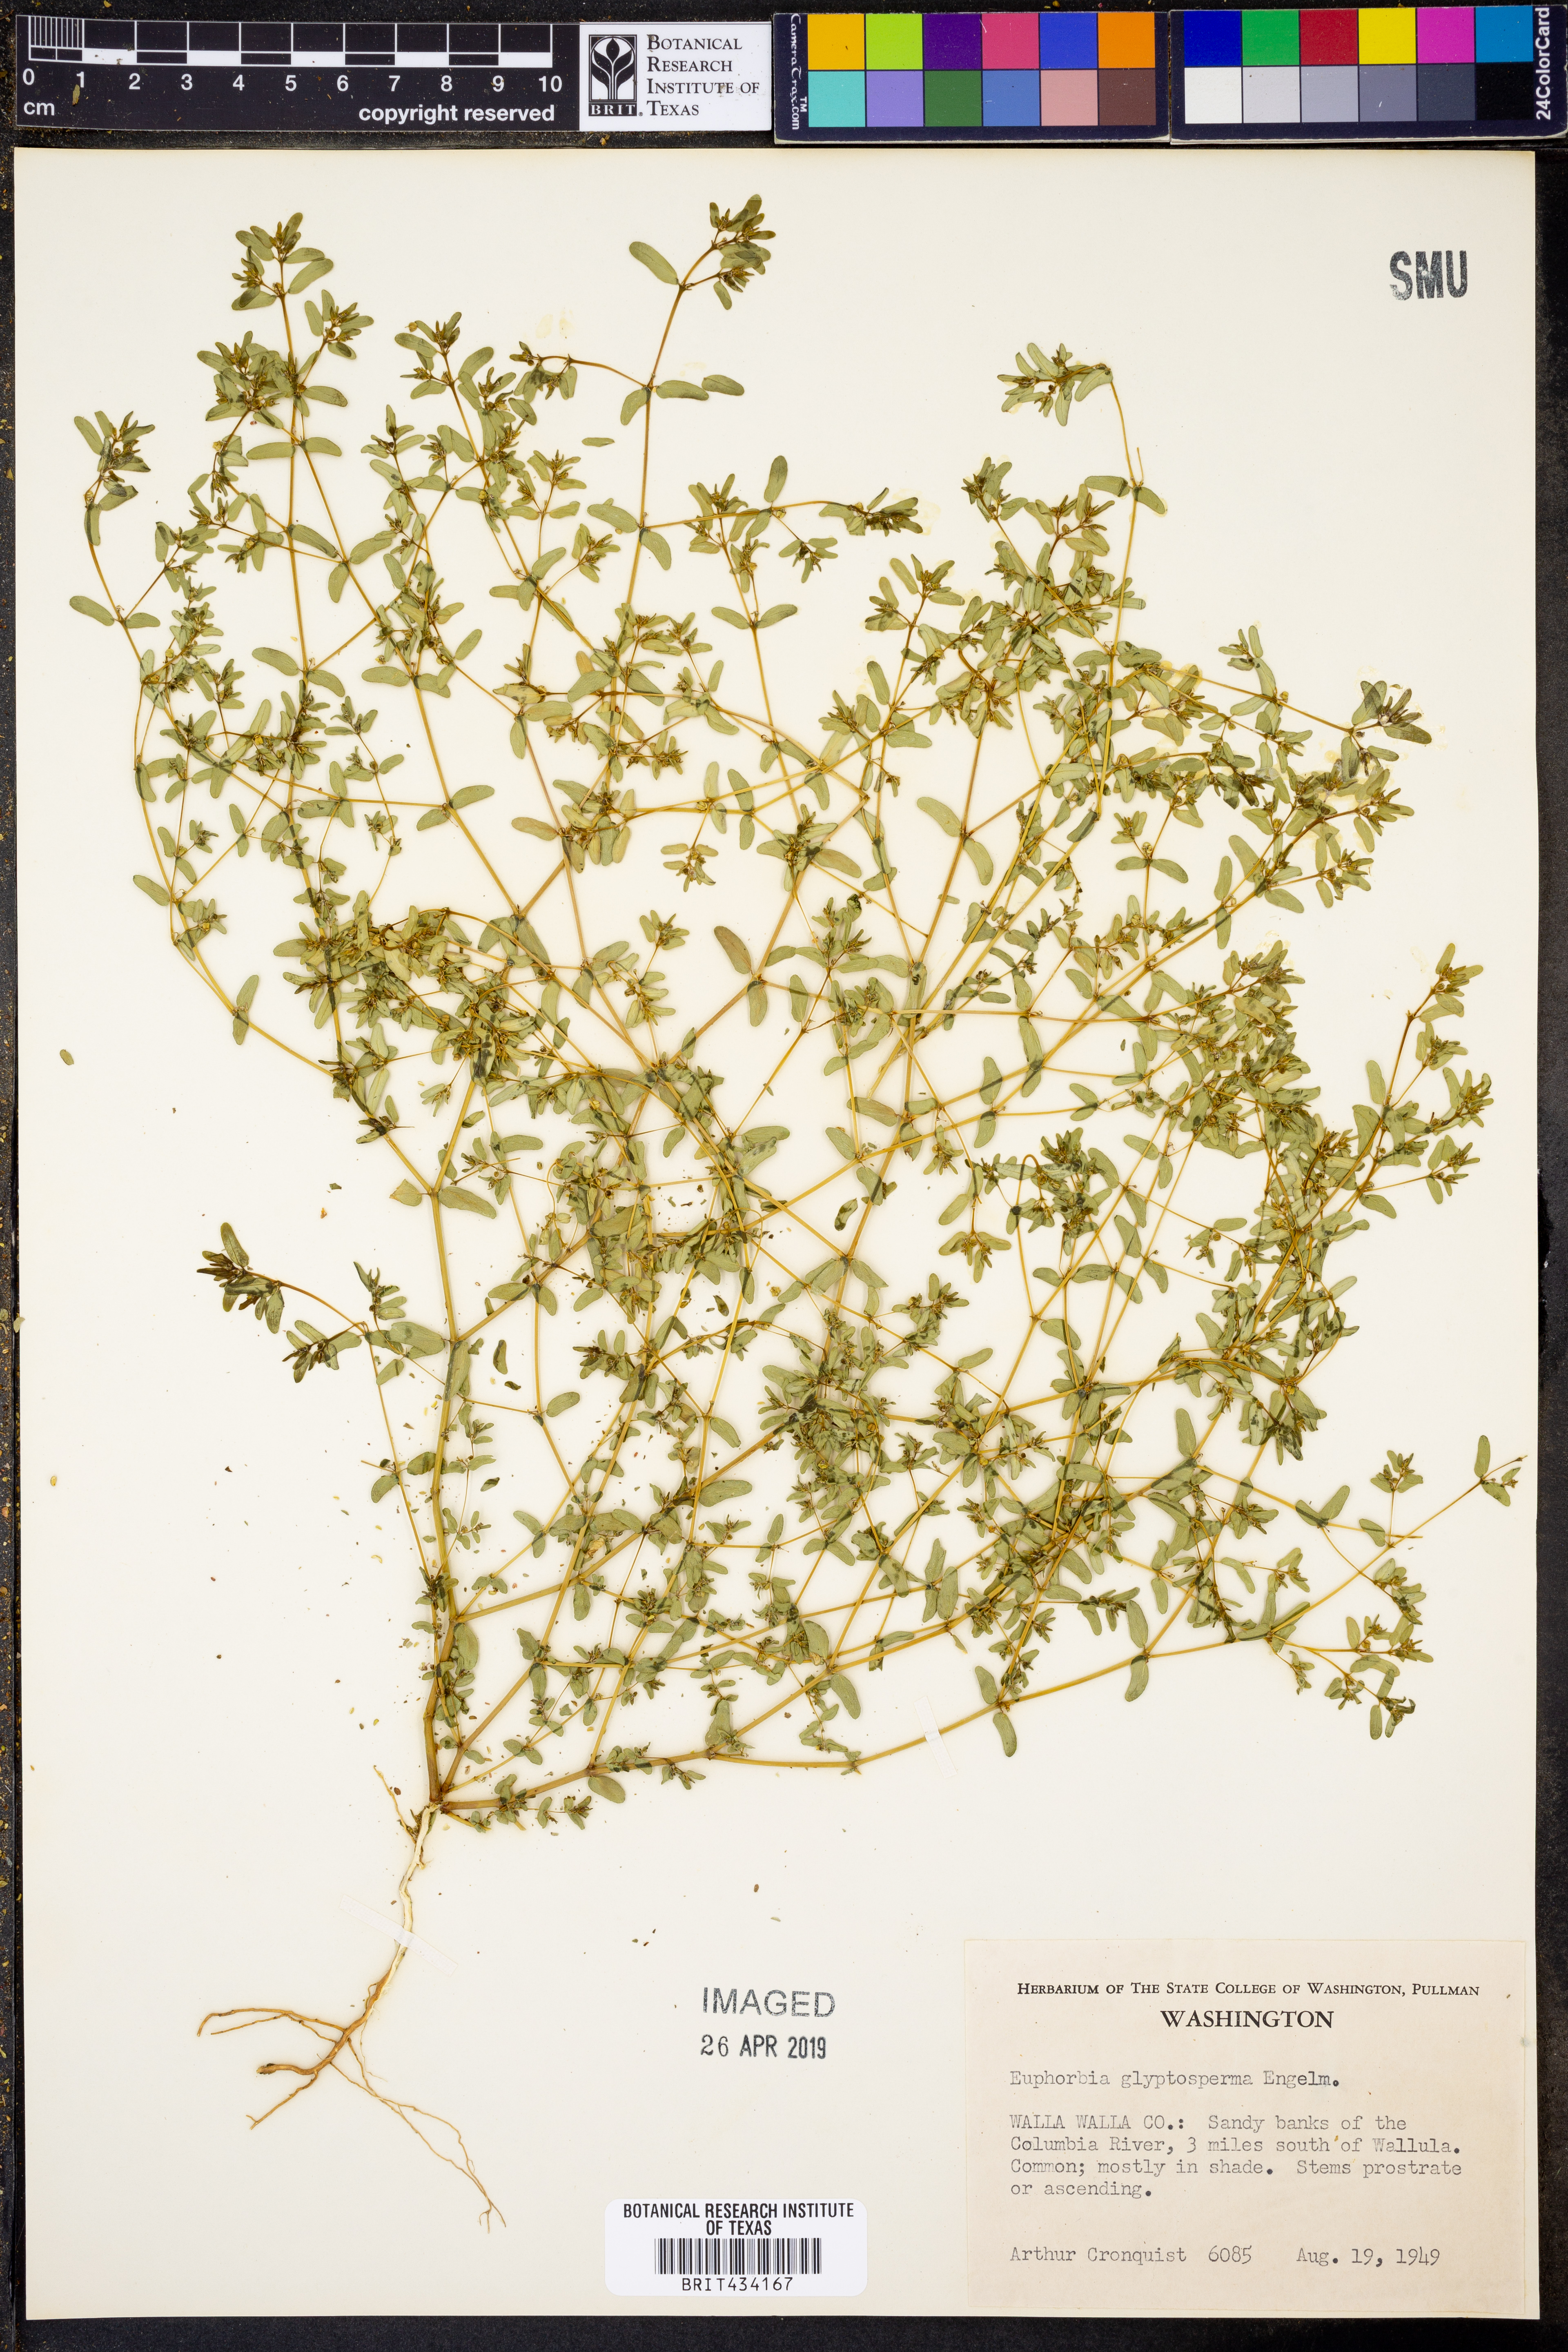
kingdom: Plantae
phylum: Tracheophyta
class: Magnoliopsida
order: Malpighiales
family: Euphorbiaceae
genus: Euphorbia
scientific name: Euphorbia glyptosperma
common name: Corrugate-seeded spurge
